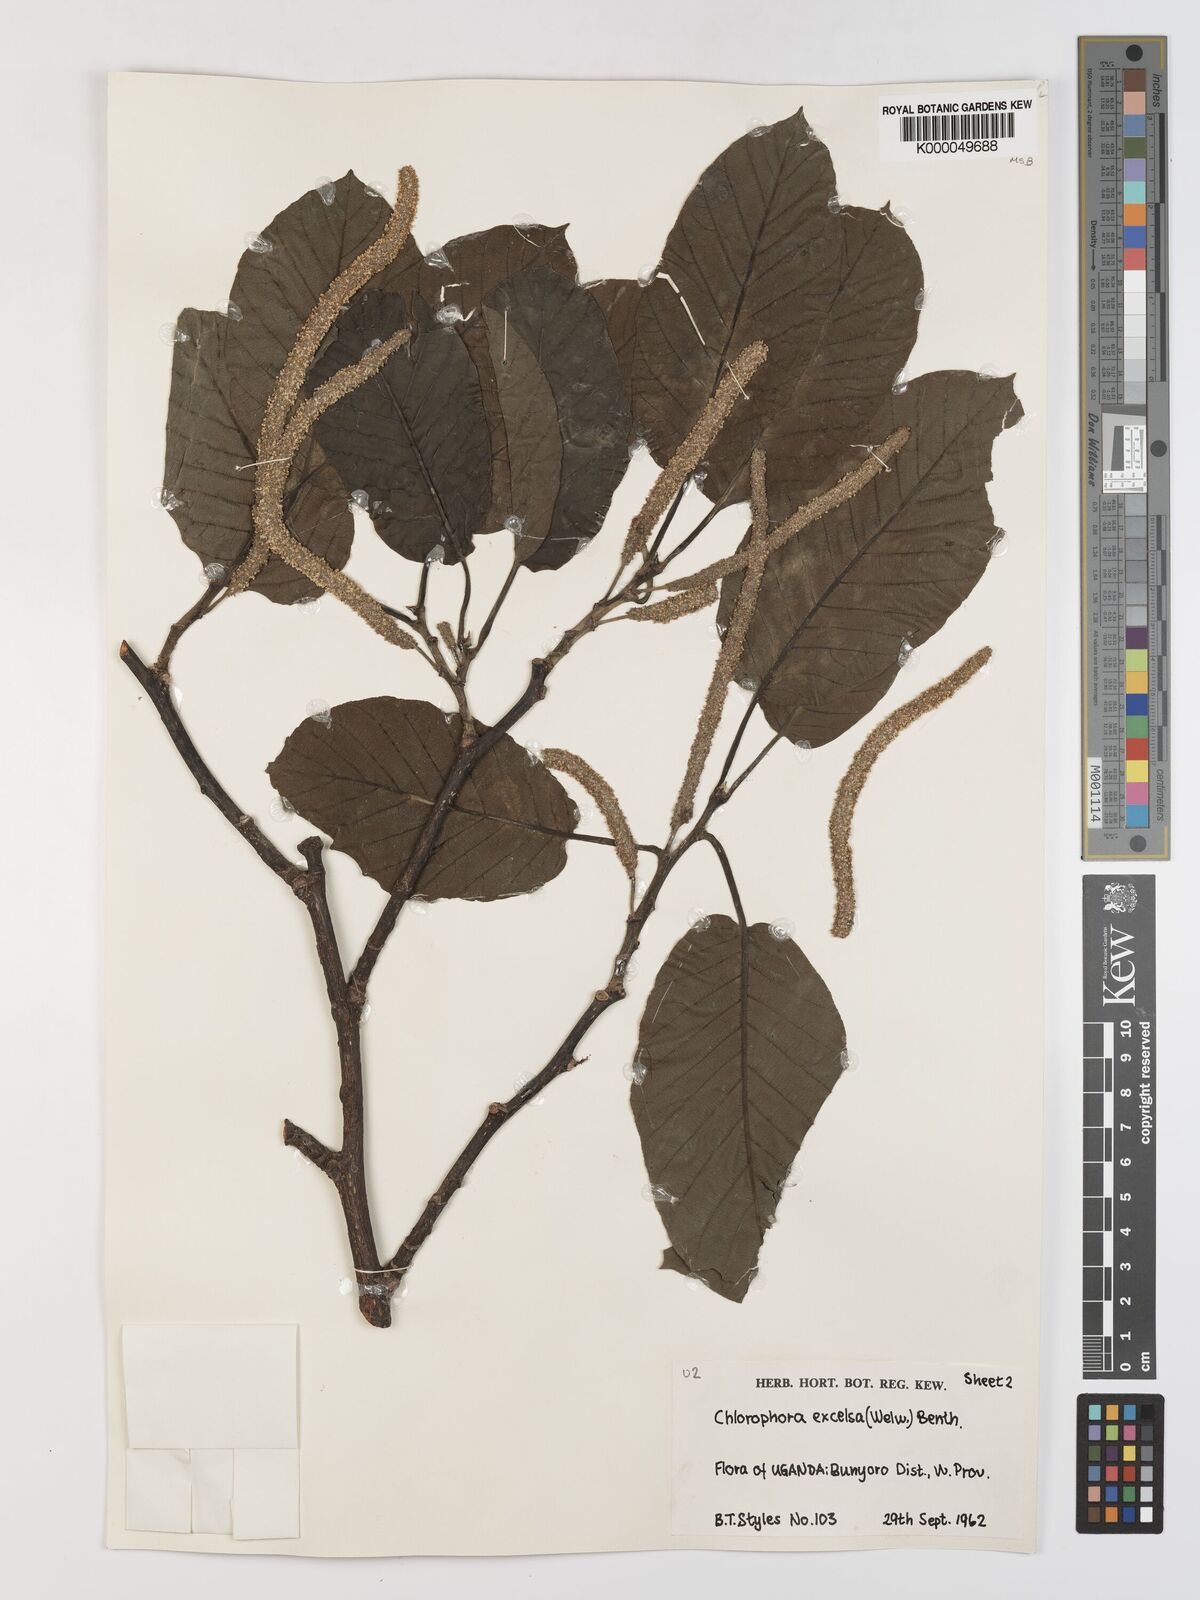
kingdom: Plantae
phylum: Tracheophyta
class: Magnoliopsida
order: Rosales
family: Moraceae
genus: Milicia
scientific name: Milicia excelsa
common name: African teak
